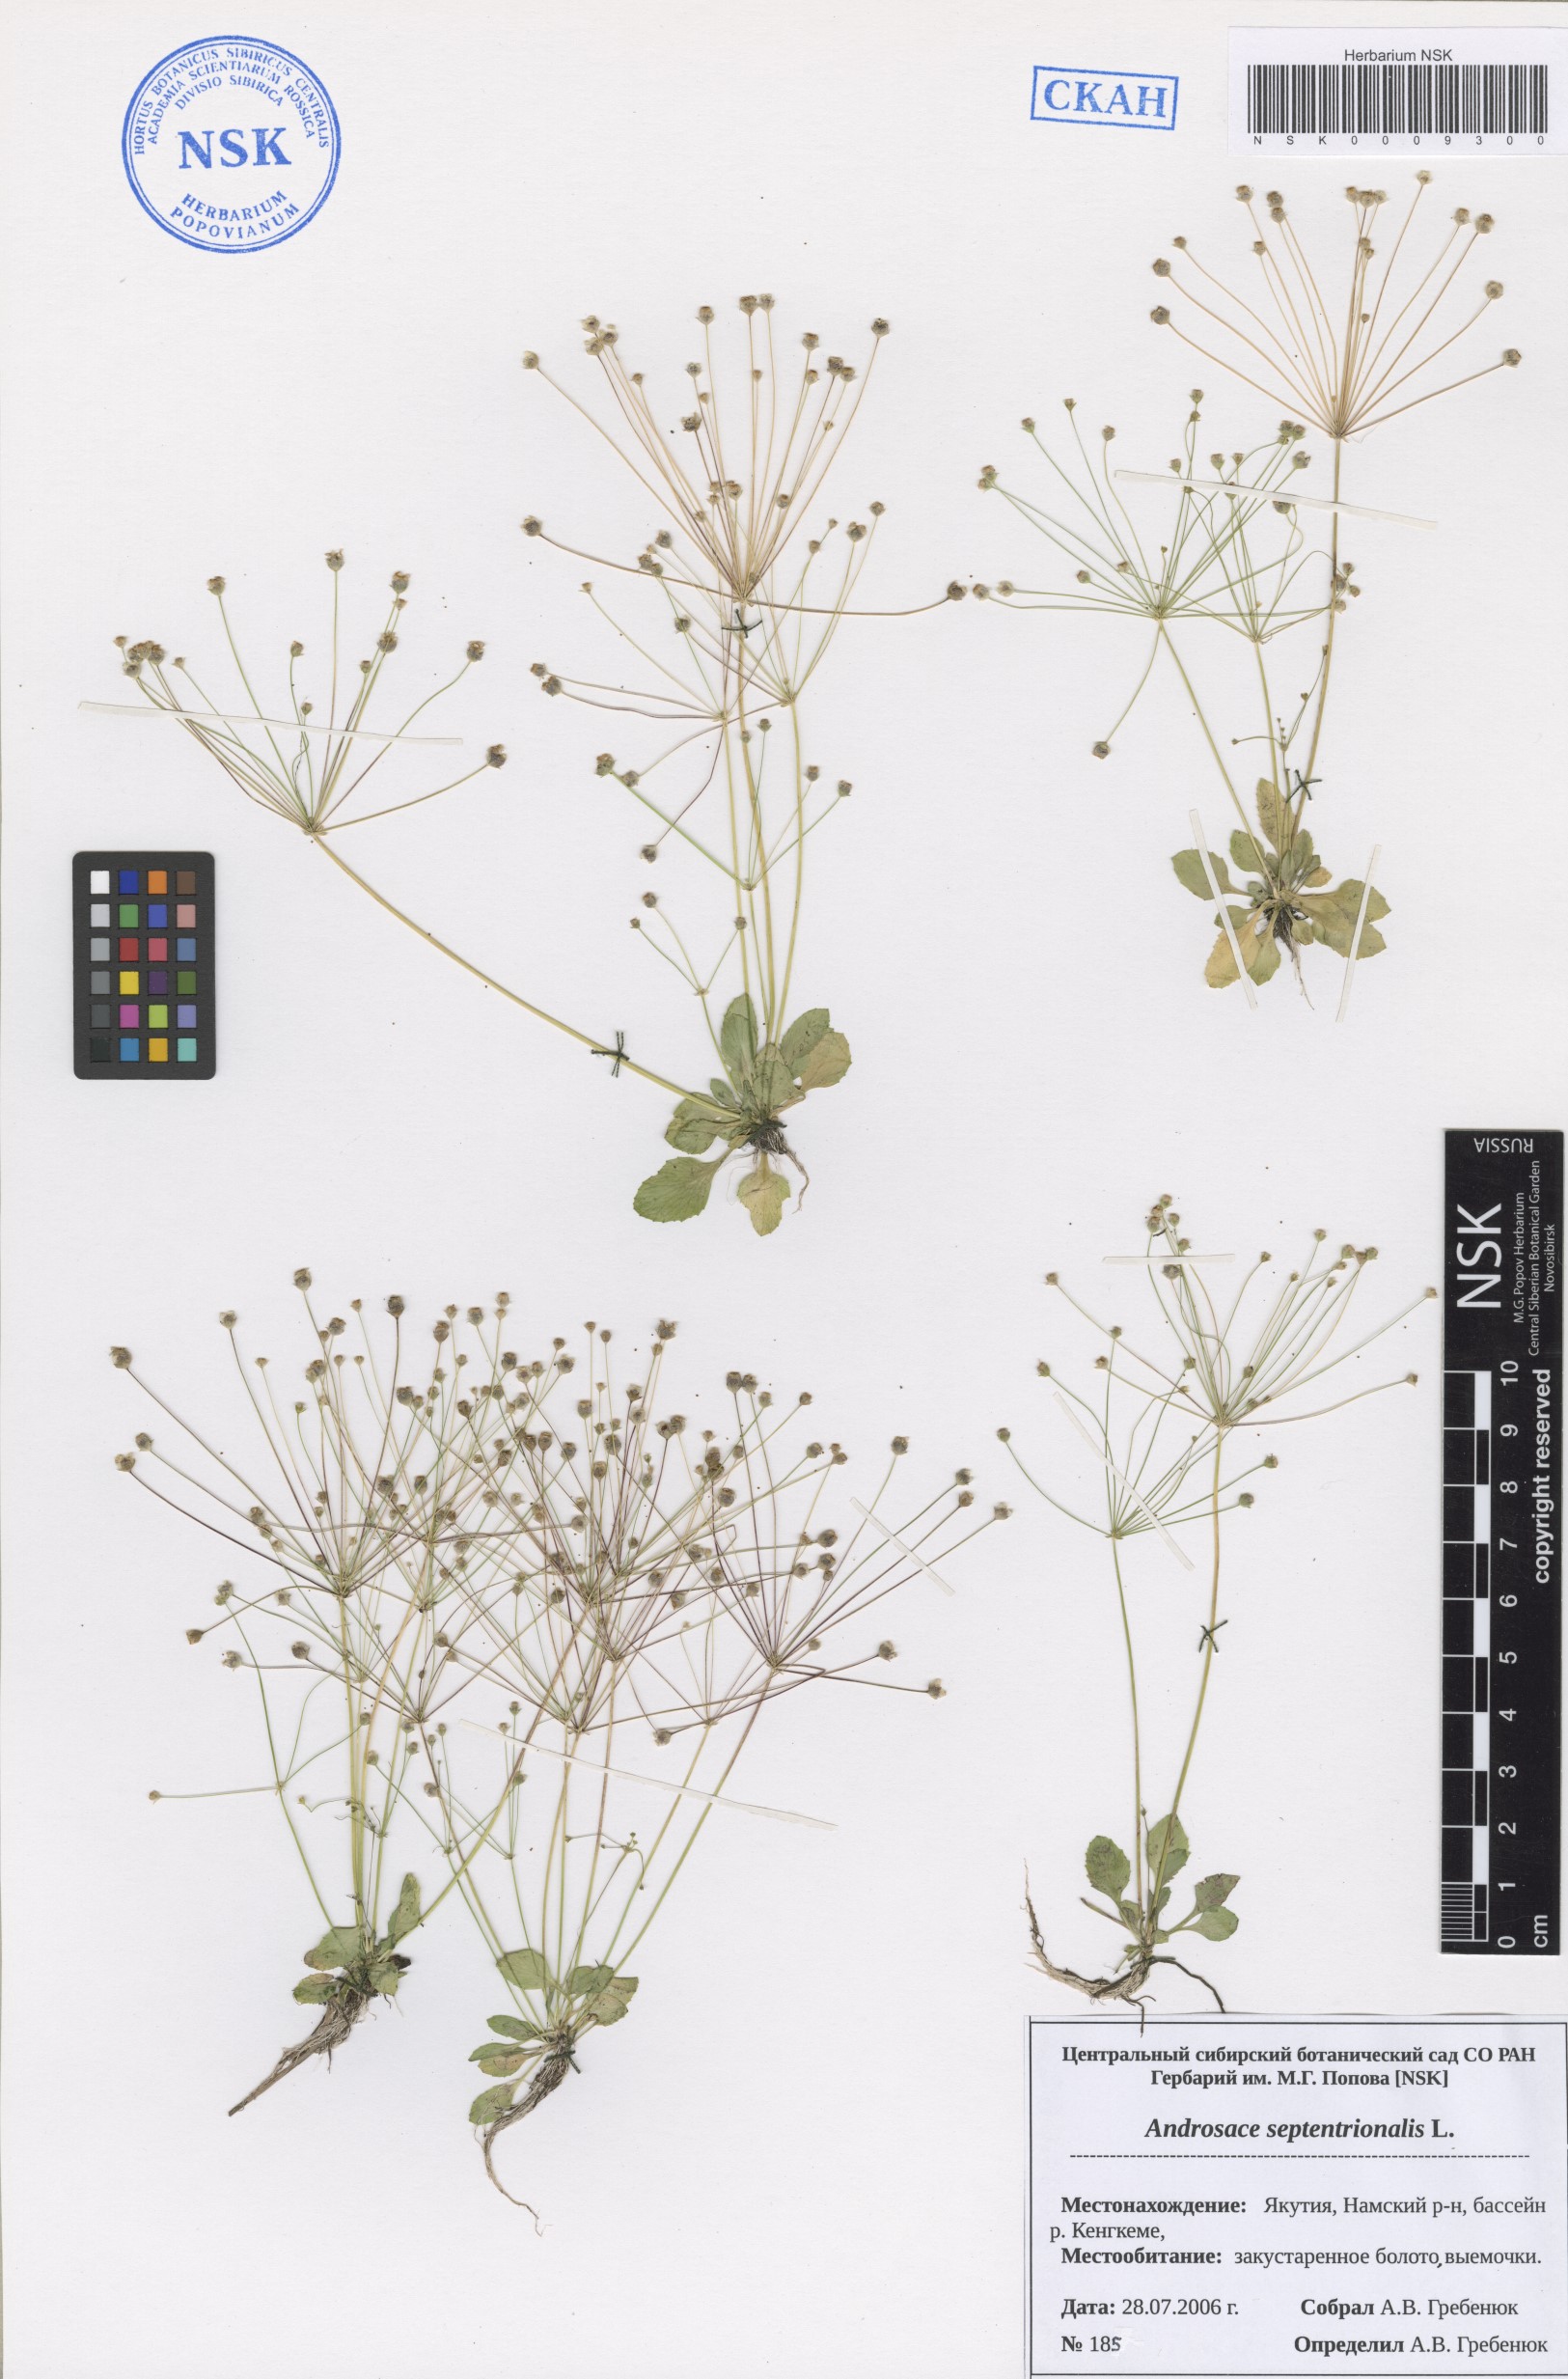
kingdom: Plantae
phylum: Tracheophyta
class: Magnoliopsida
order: Ericales
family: Primulaceae
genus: Androsace
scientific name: Androsace septentrionalis
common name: Hairy northern fairy-candelabra
